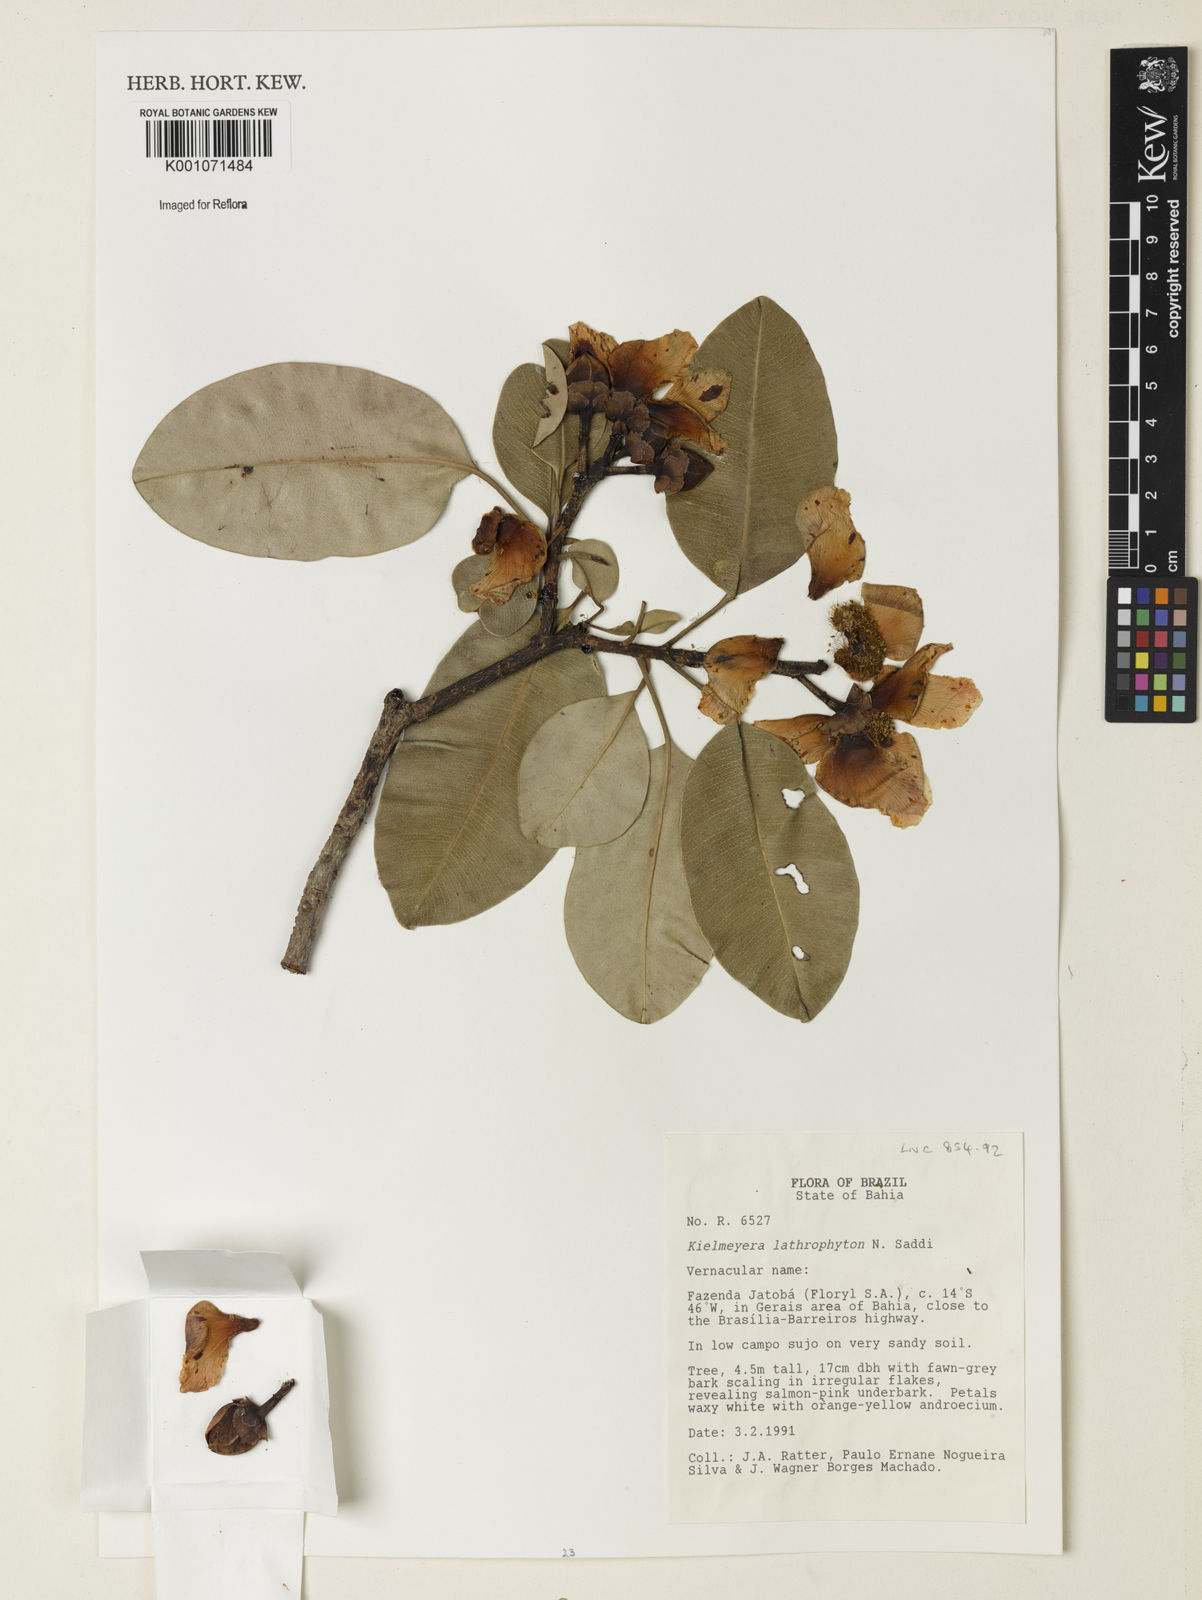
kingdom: Plantae
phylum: Tracheophyta
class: Magnoliopsida
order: Malpighiales
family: Calophyllaceae
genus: Kielmeyera
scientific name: Kielmeyera lathrophyton
